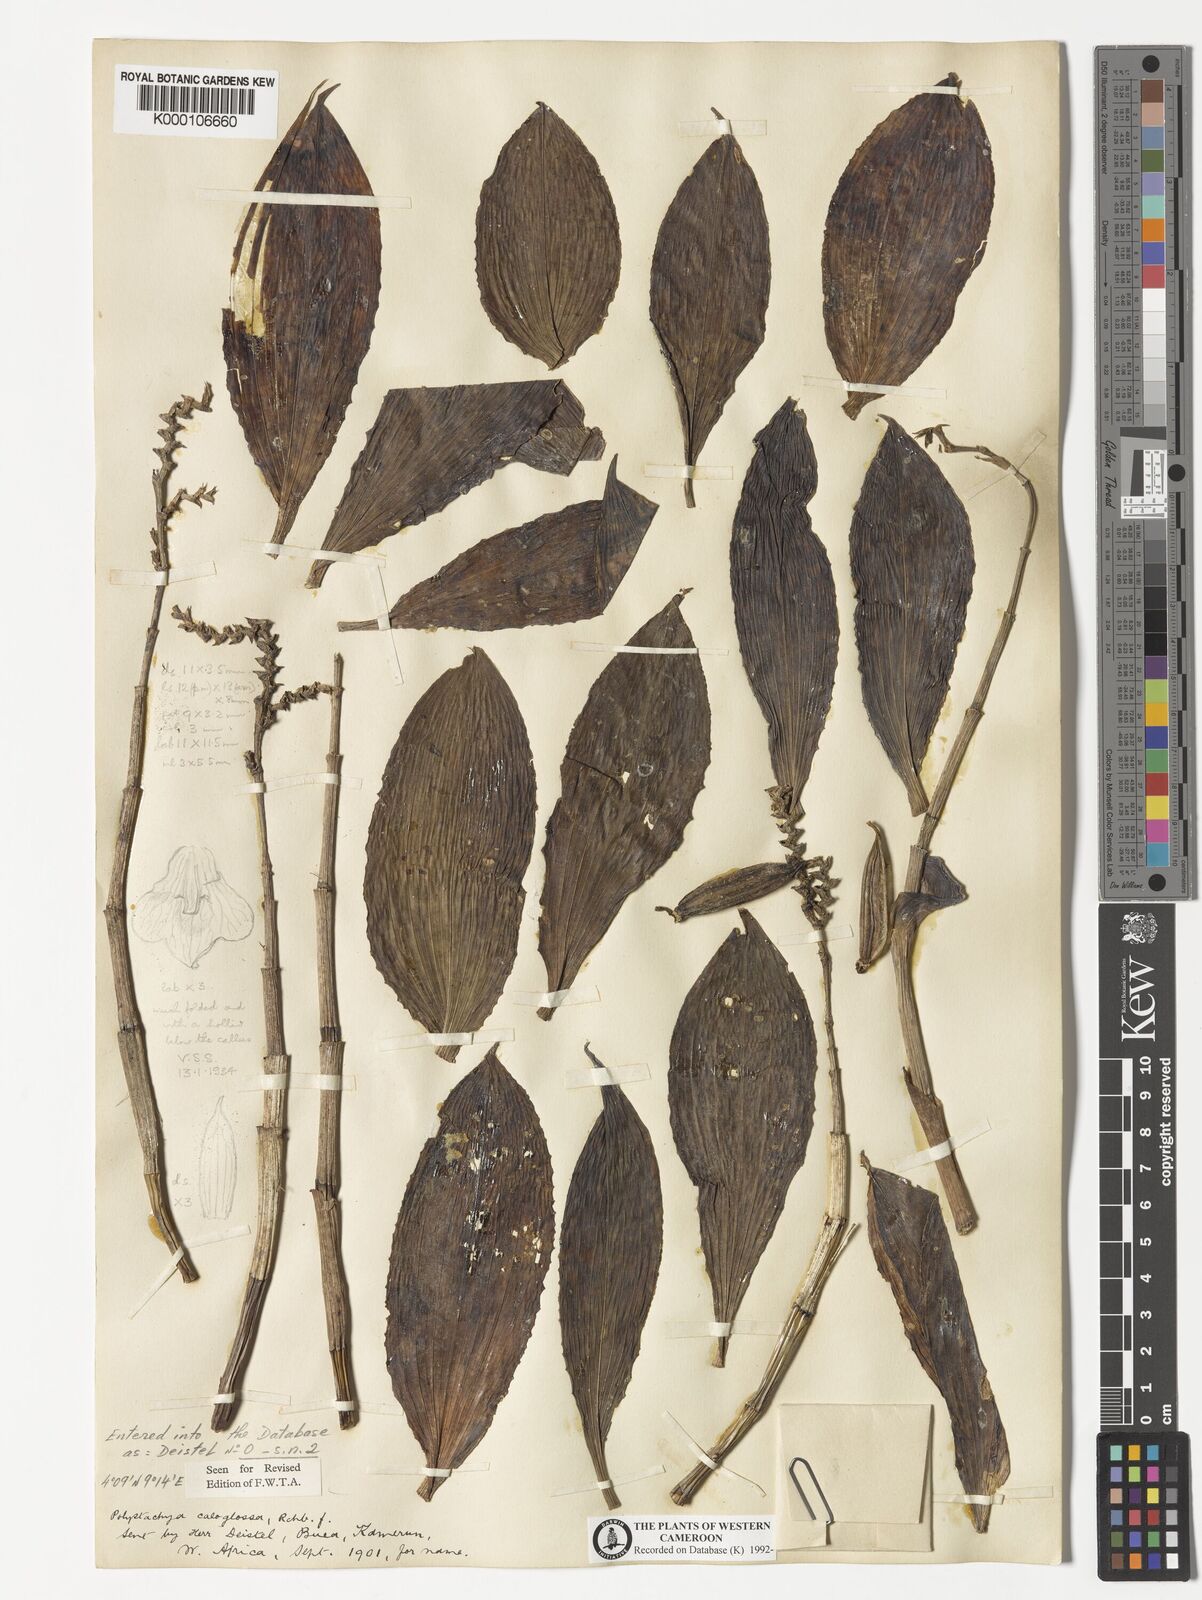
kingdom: Plantae
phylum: Tracheophyta
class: Liliopsida
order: Asparagales
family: Orchidaceae
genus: Polystachya
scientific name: Polystachya caloglossa
